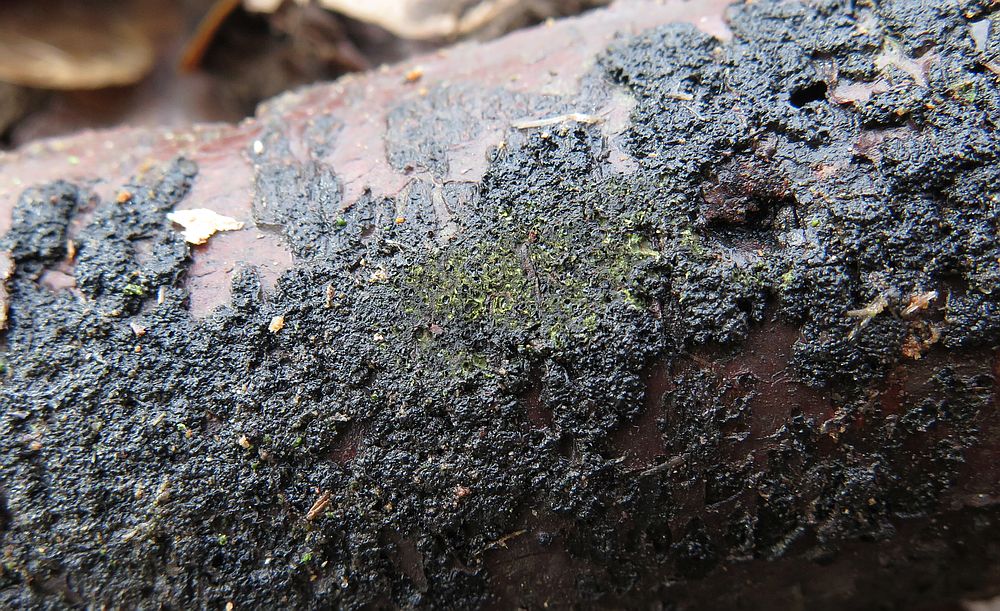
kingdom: Fungi
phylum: Ascomycota
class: Sordariomycetes
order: Xylariales
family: Diatrypaceae
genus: Eutypa
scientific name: Eutypa flavovirens
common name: grønkødet kulskorpe
